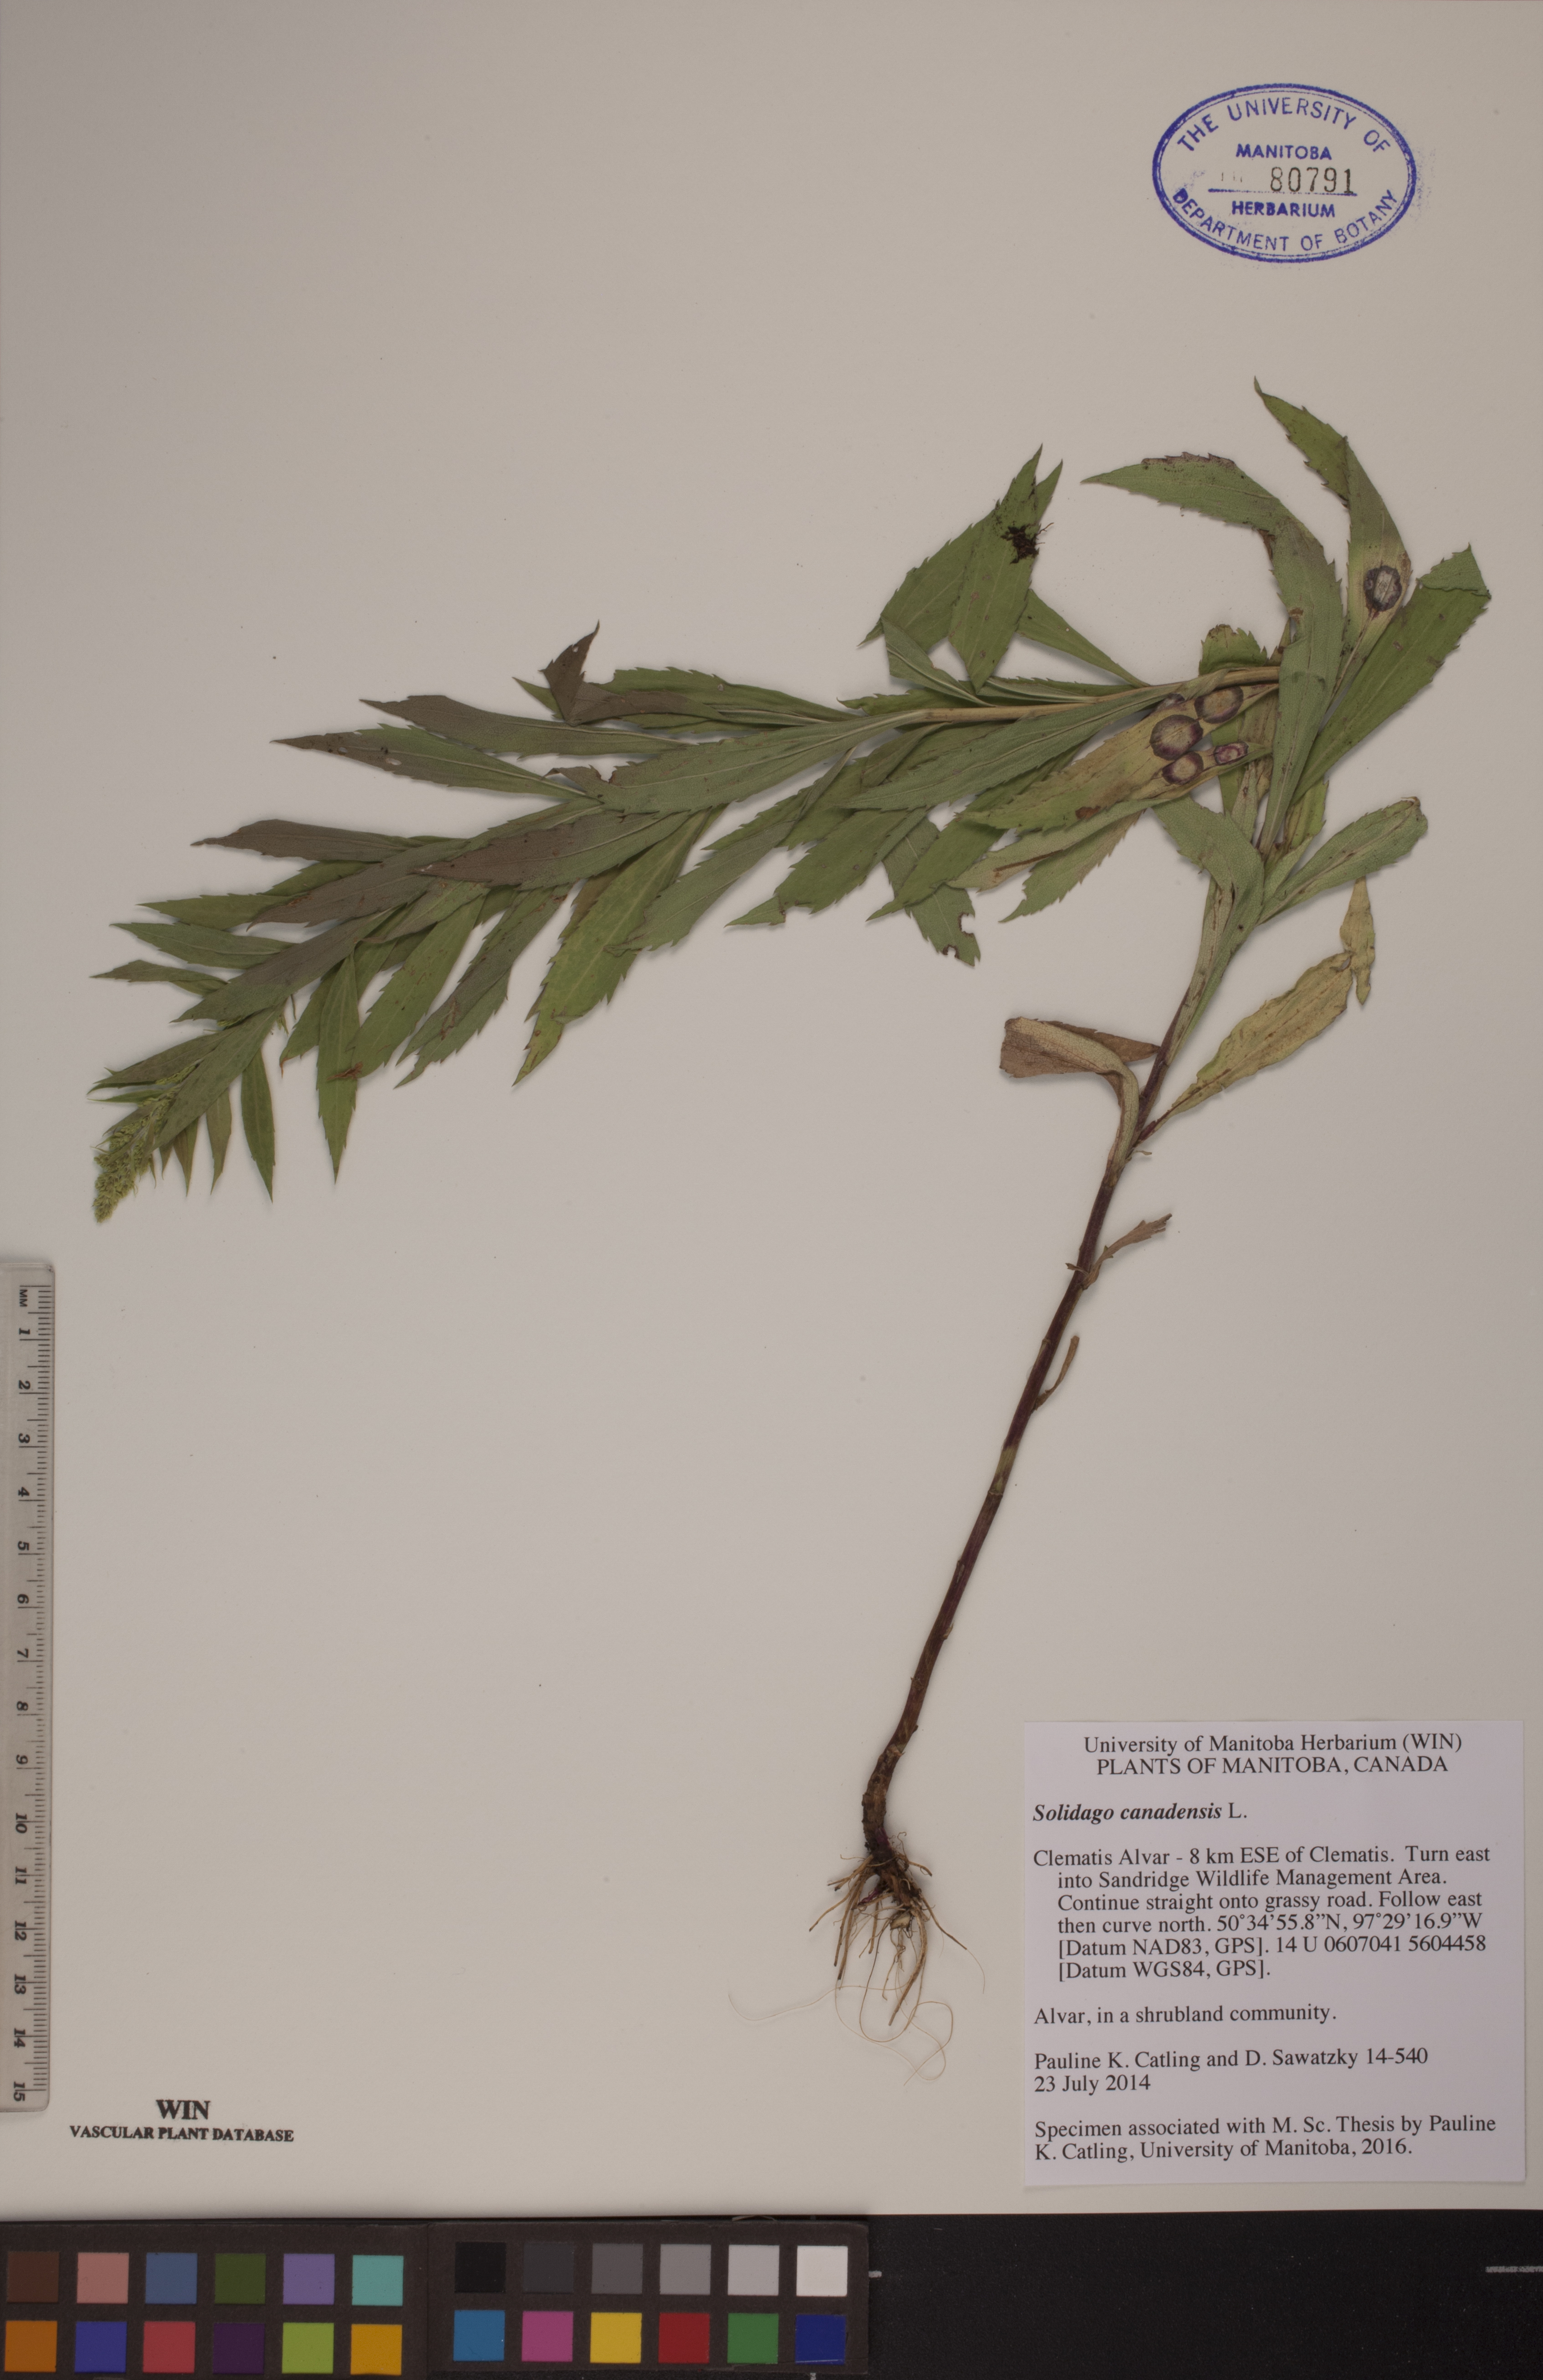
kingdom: Plantae
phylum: Tracheophyta
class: Magnoliopsida
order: Asterales
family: Asteraceae
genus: Solidago
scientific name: Solidago canadensis
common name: Canada goldenrod
